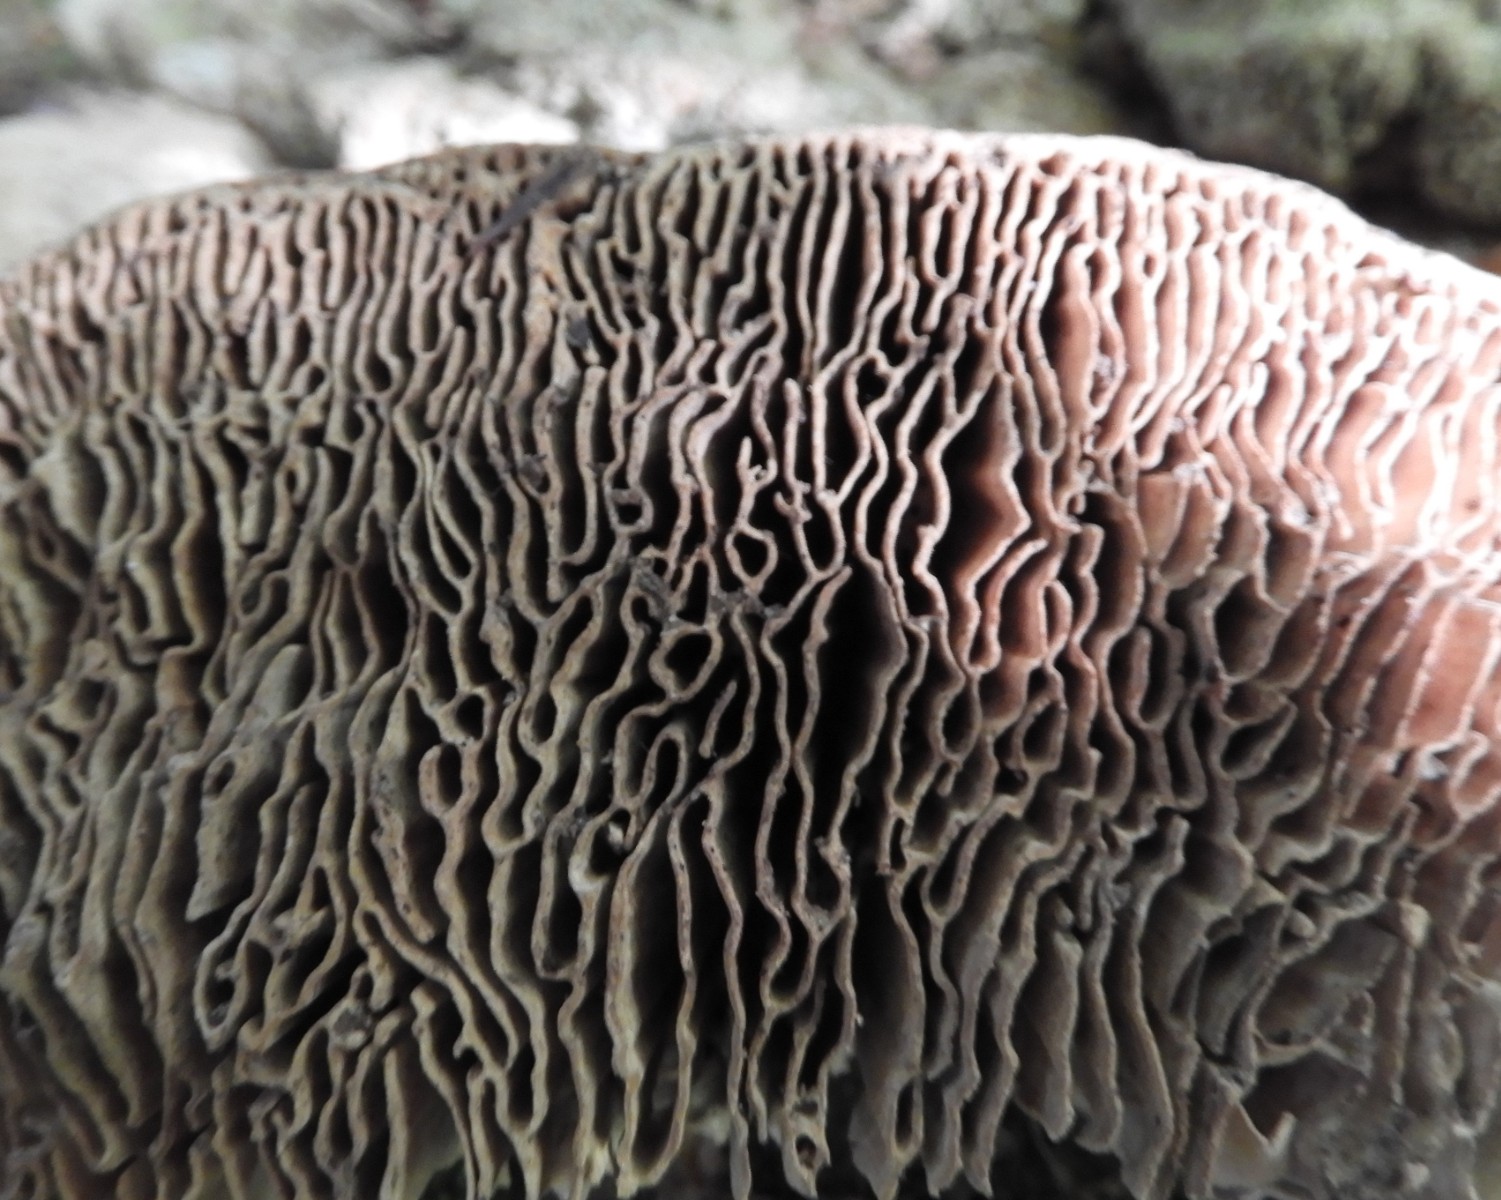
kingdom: Fungi
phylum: Basidiomycota
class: Agaricomycetes
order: Polyporales
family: Fomitopsidaceae
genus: Daedalea
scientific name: Daedalea quercina
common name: ege-labyrintsvamp
